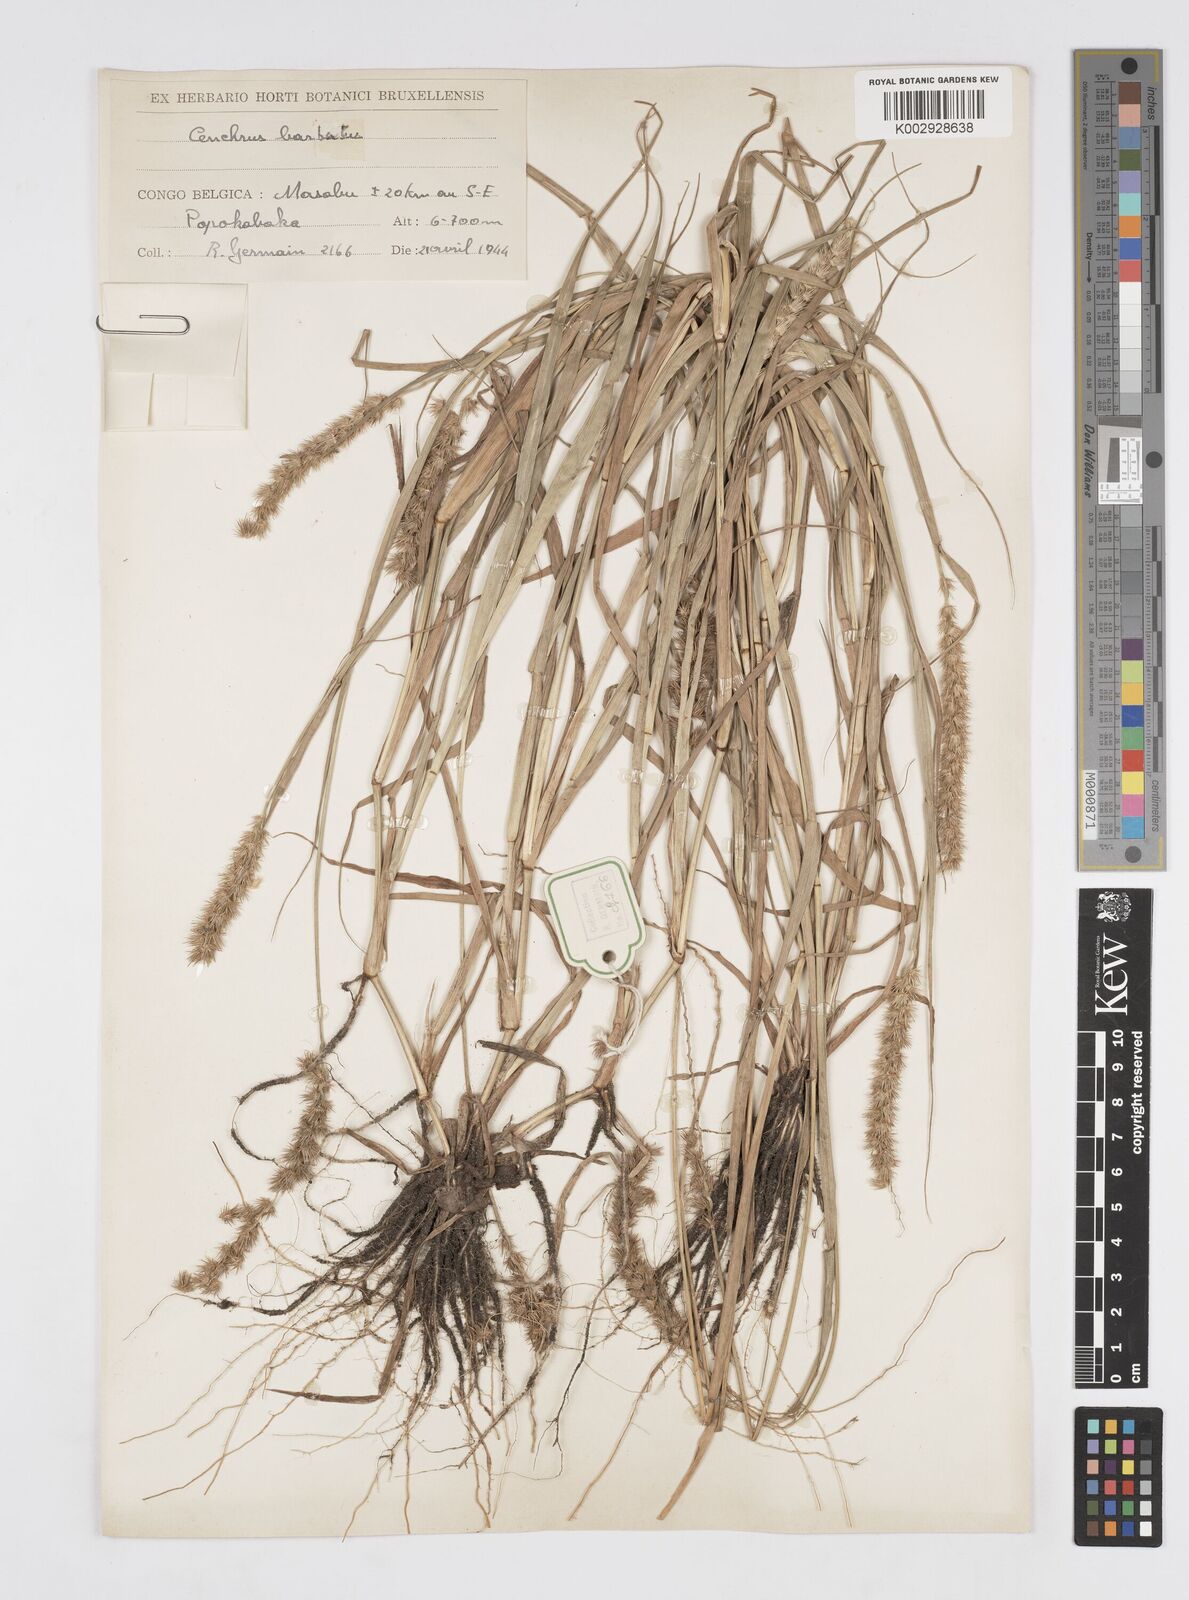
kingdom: Plantae
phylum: Tracheophyta
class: Liliopsida
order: Poales
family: Poaceae
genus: Cenchrus
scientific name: Cenchrus biflorus
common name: Indian sandbur
